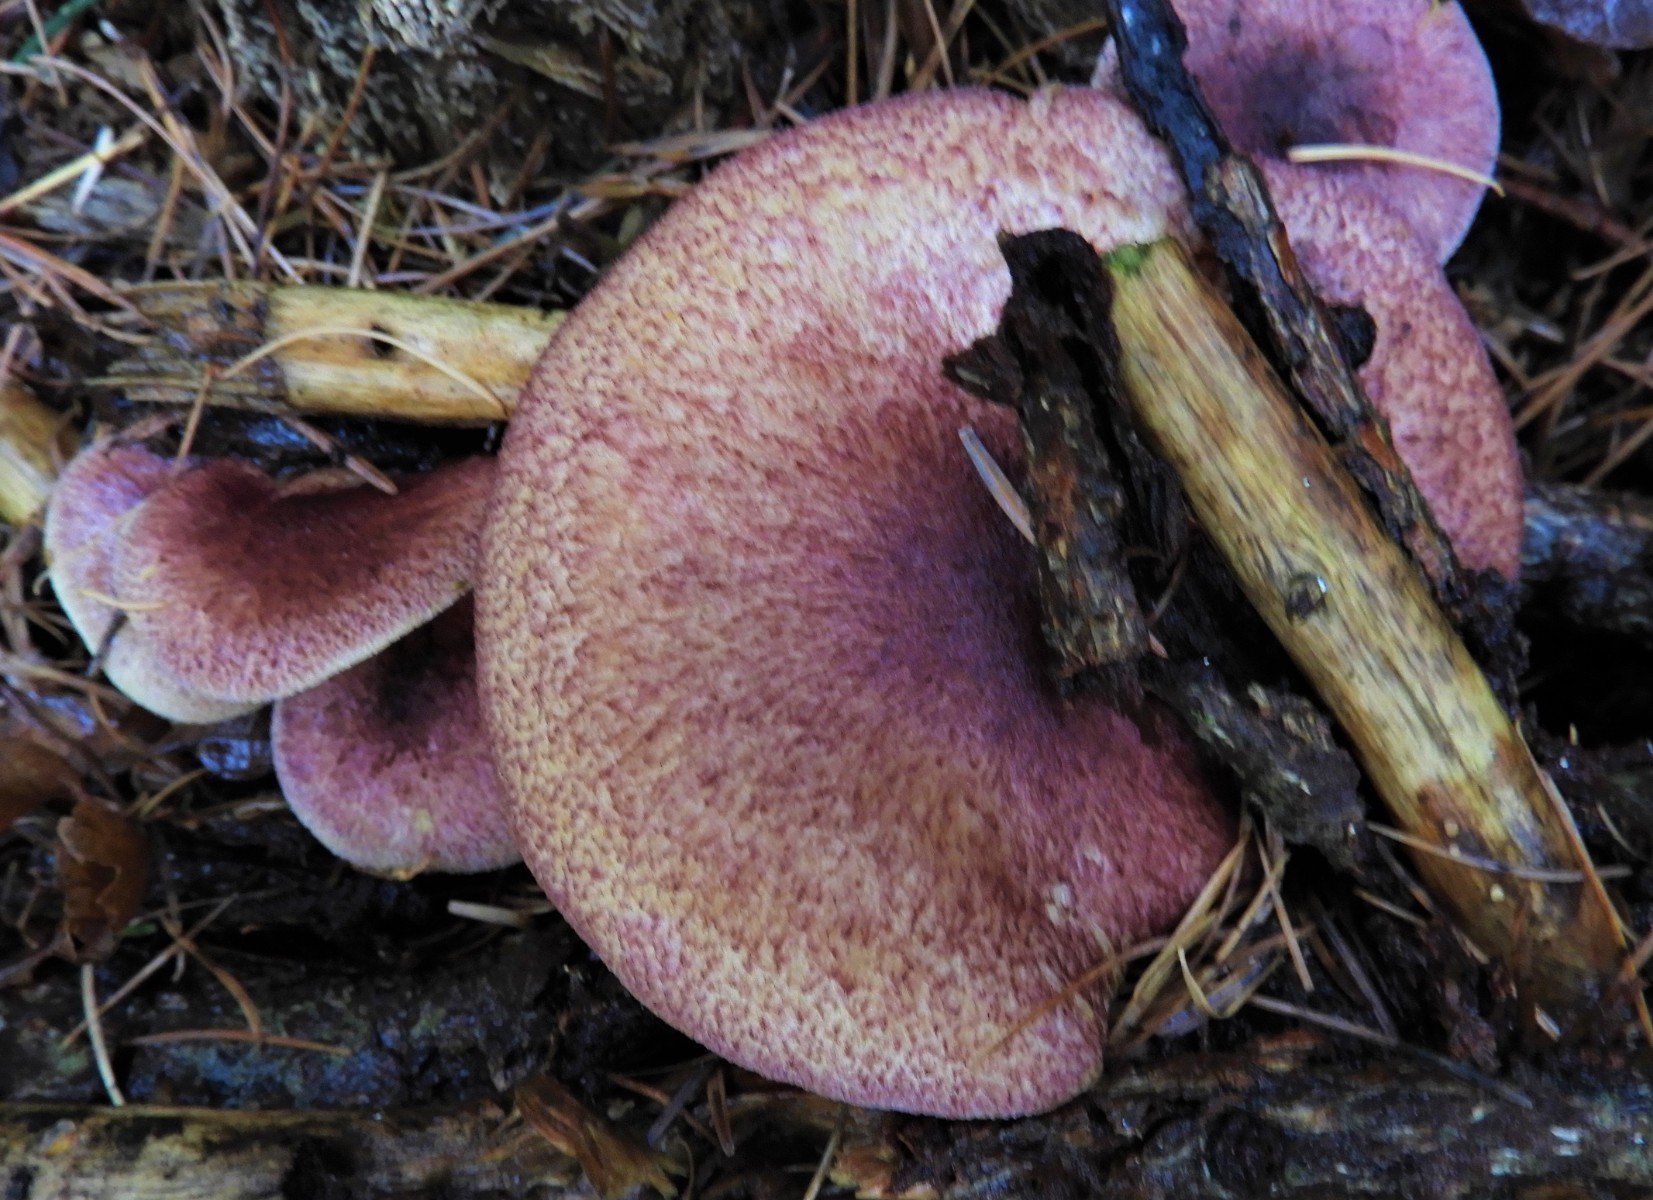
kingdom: Fungi
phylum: Basidiomycota
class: Agaricomycetes
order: Agaricales
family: Tricholomataceae
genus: Tricholomopsis
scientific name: Tricholomopsis rutilans
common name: purpur-væbnerhat
